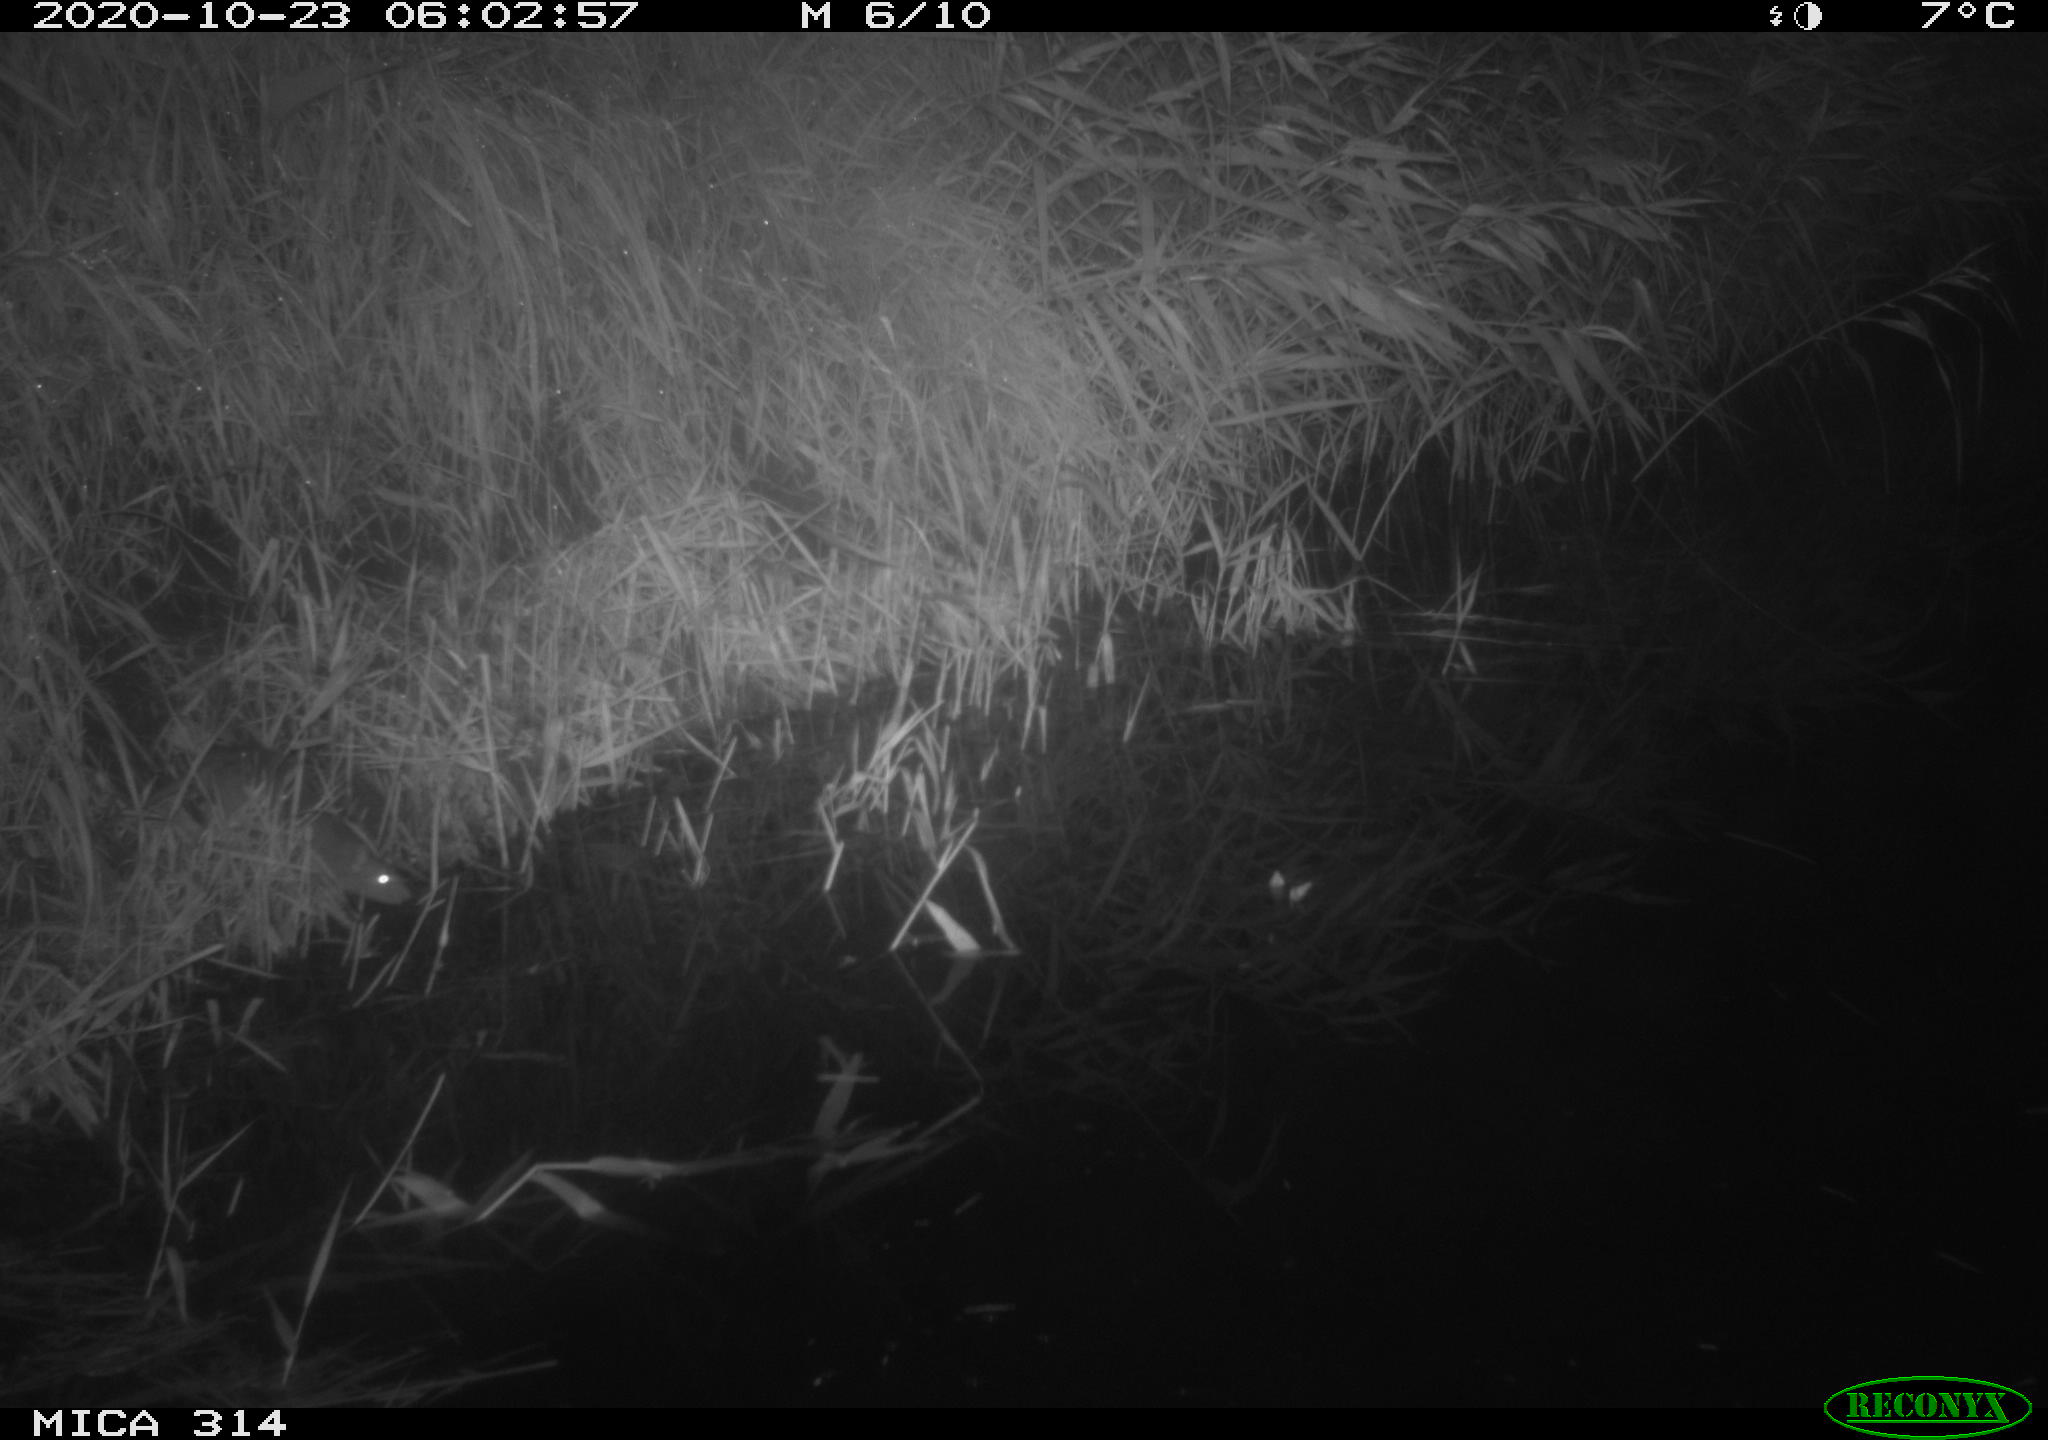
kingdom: Animalia
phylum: Chordata
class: Mammalia
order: Rodentia
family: Muridae
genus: Rattus
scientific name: Rattus norvegicus
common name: Brown rat
